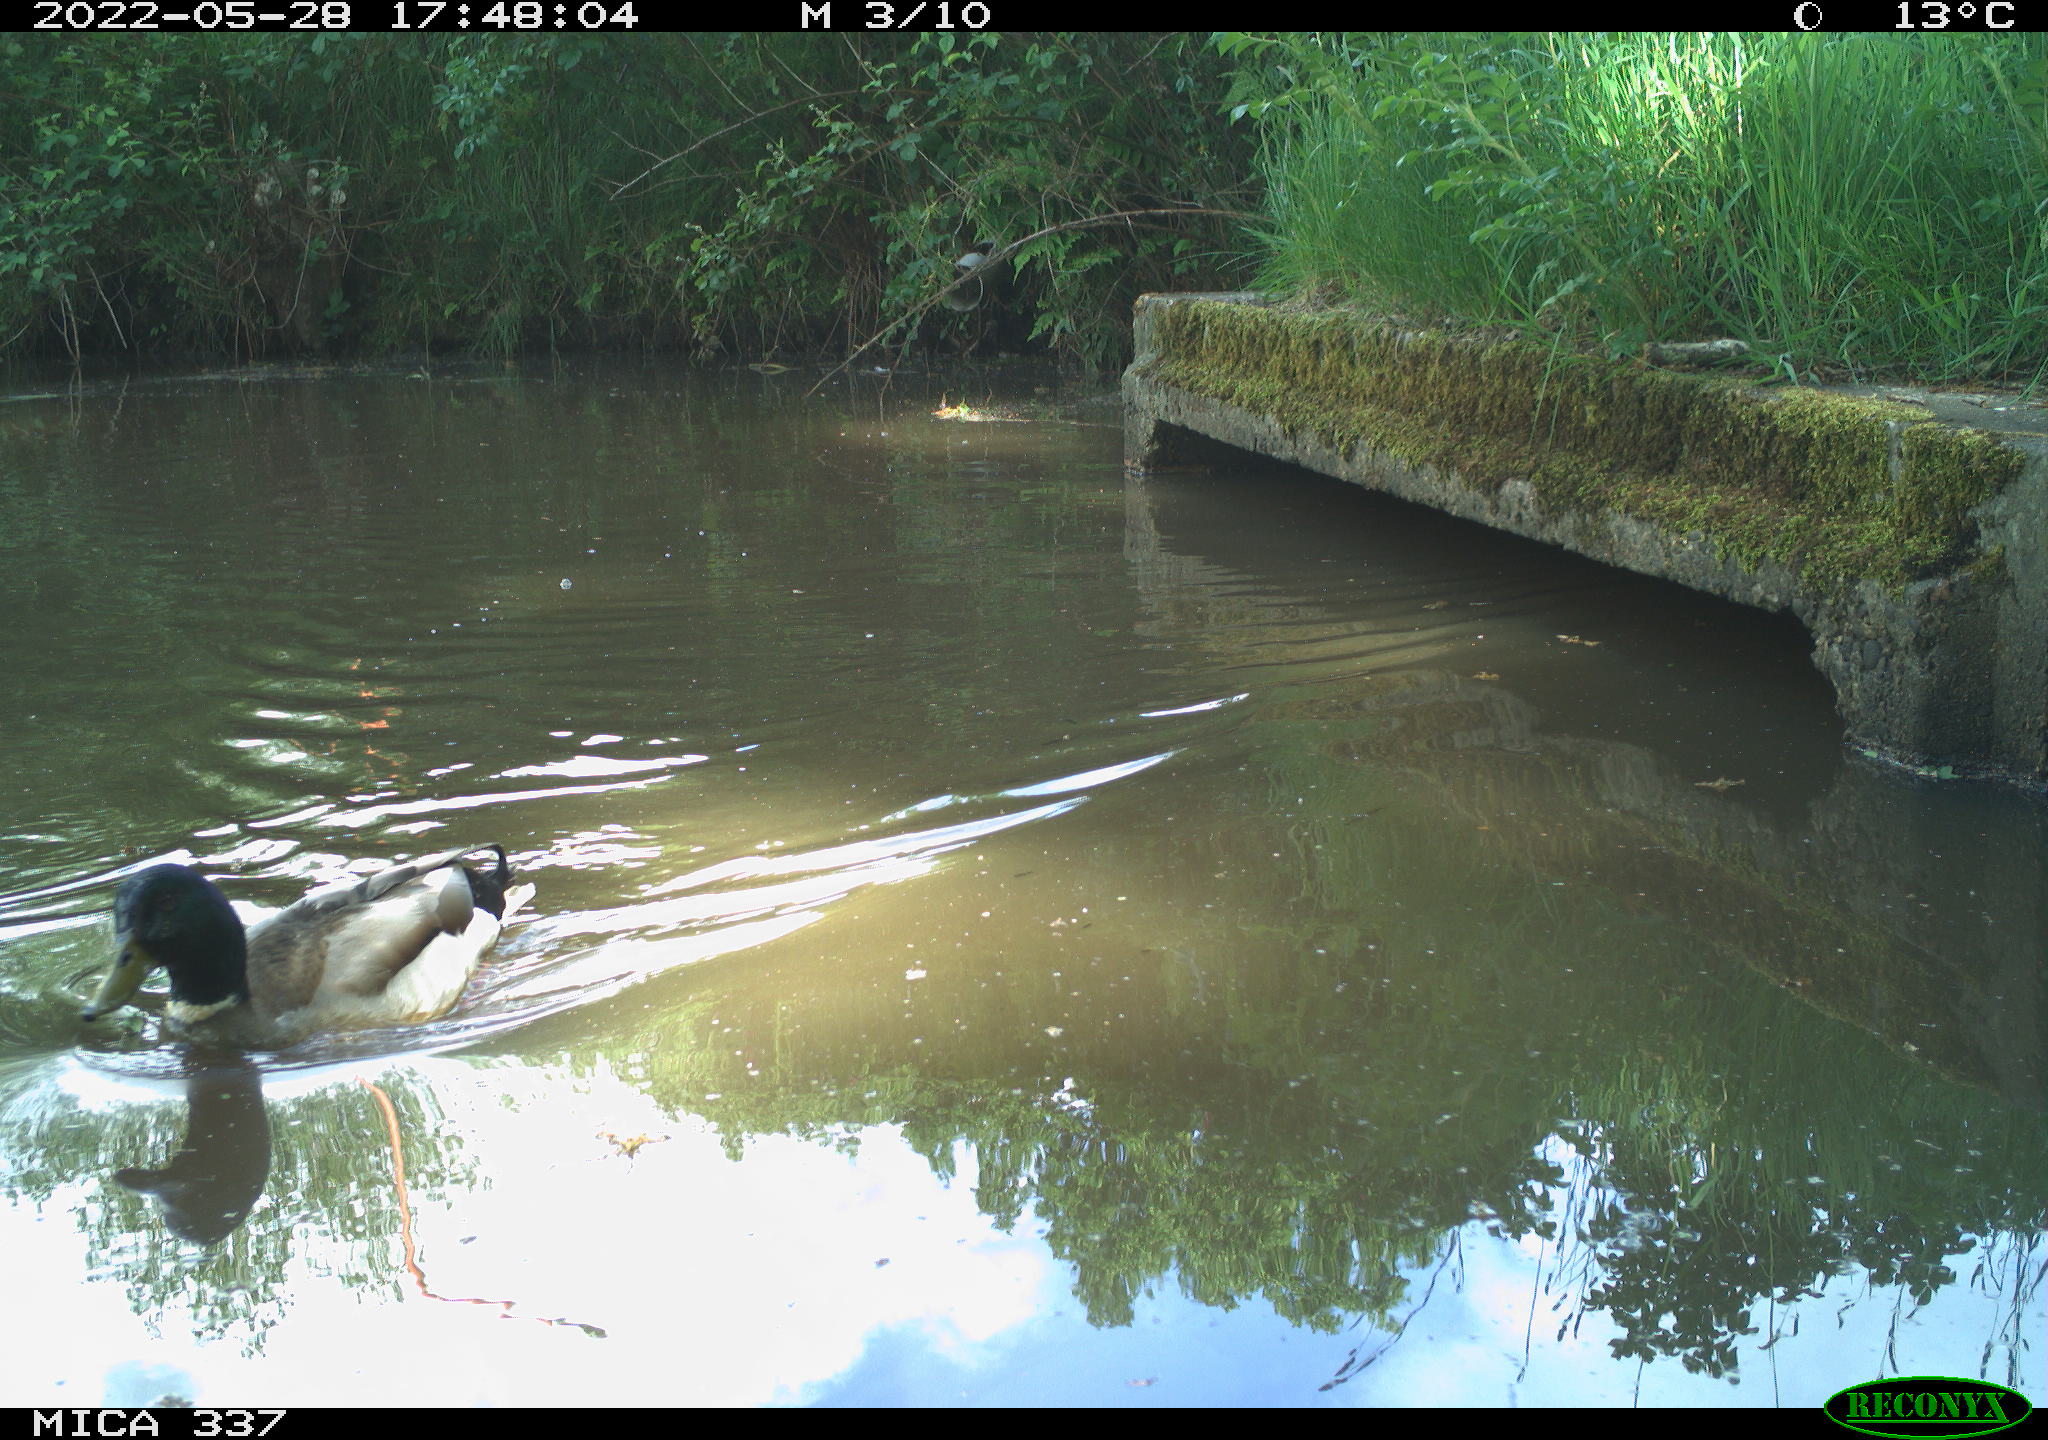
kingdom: Animalia
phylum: Chordata
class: Aves
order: Anseriformes
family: Anatidae
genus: Anas
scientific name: Anas platyrhynchos
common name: Mallard
